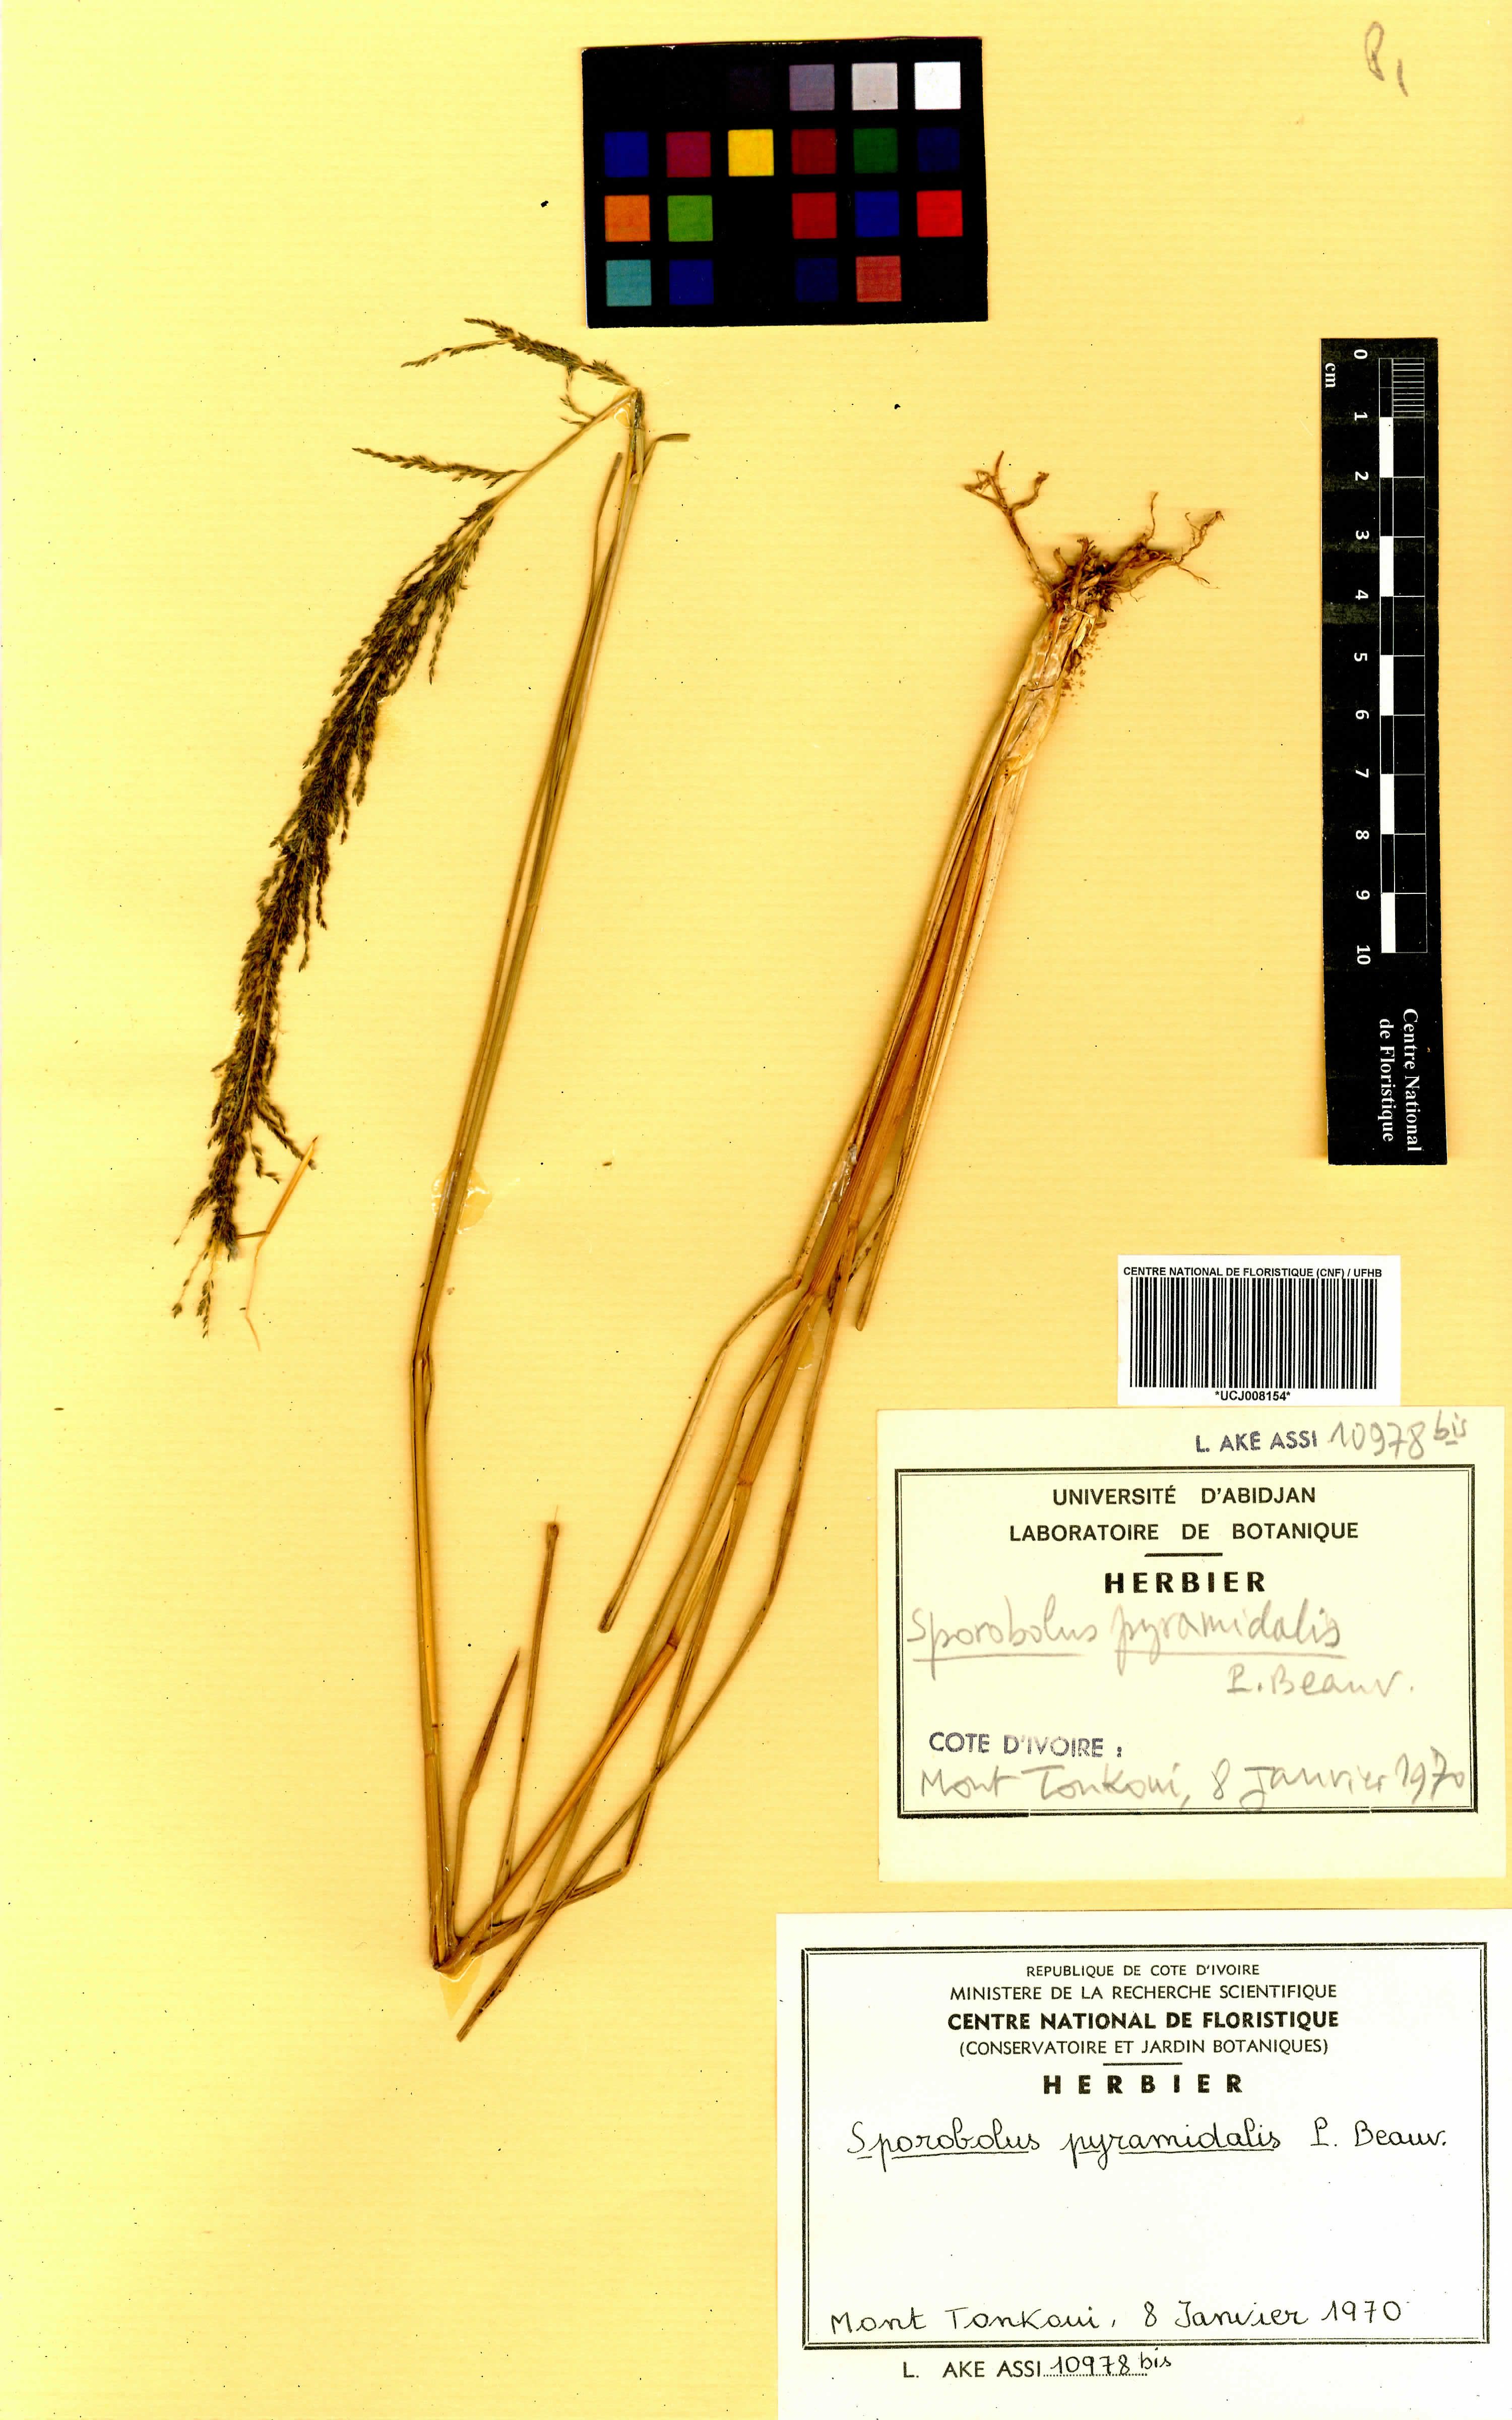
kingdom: Plantae
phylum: Tracheophyta
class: Liliopsida
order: Poales
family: Poaceae
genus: Sporobolus
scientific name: Sporobolus pyramidalis
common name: West indian dropseed
